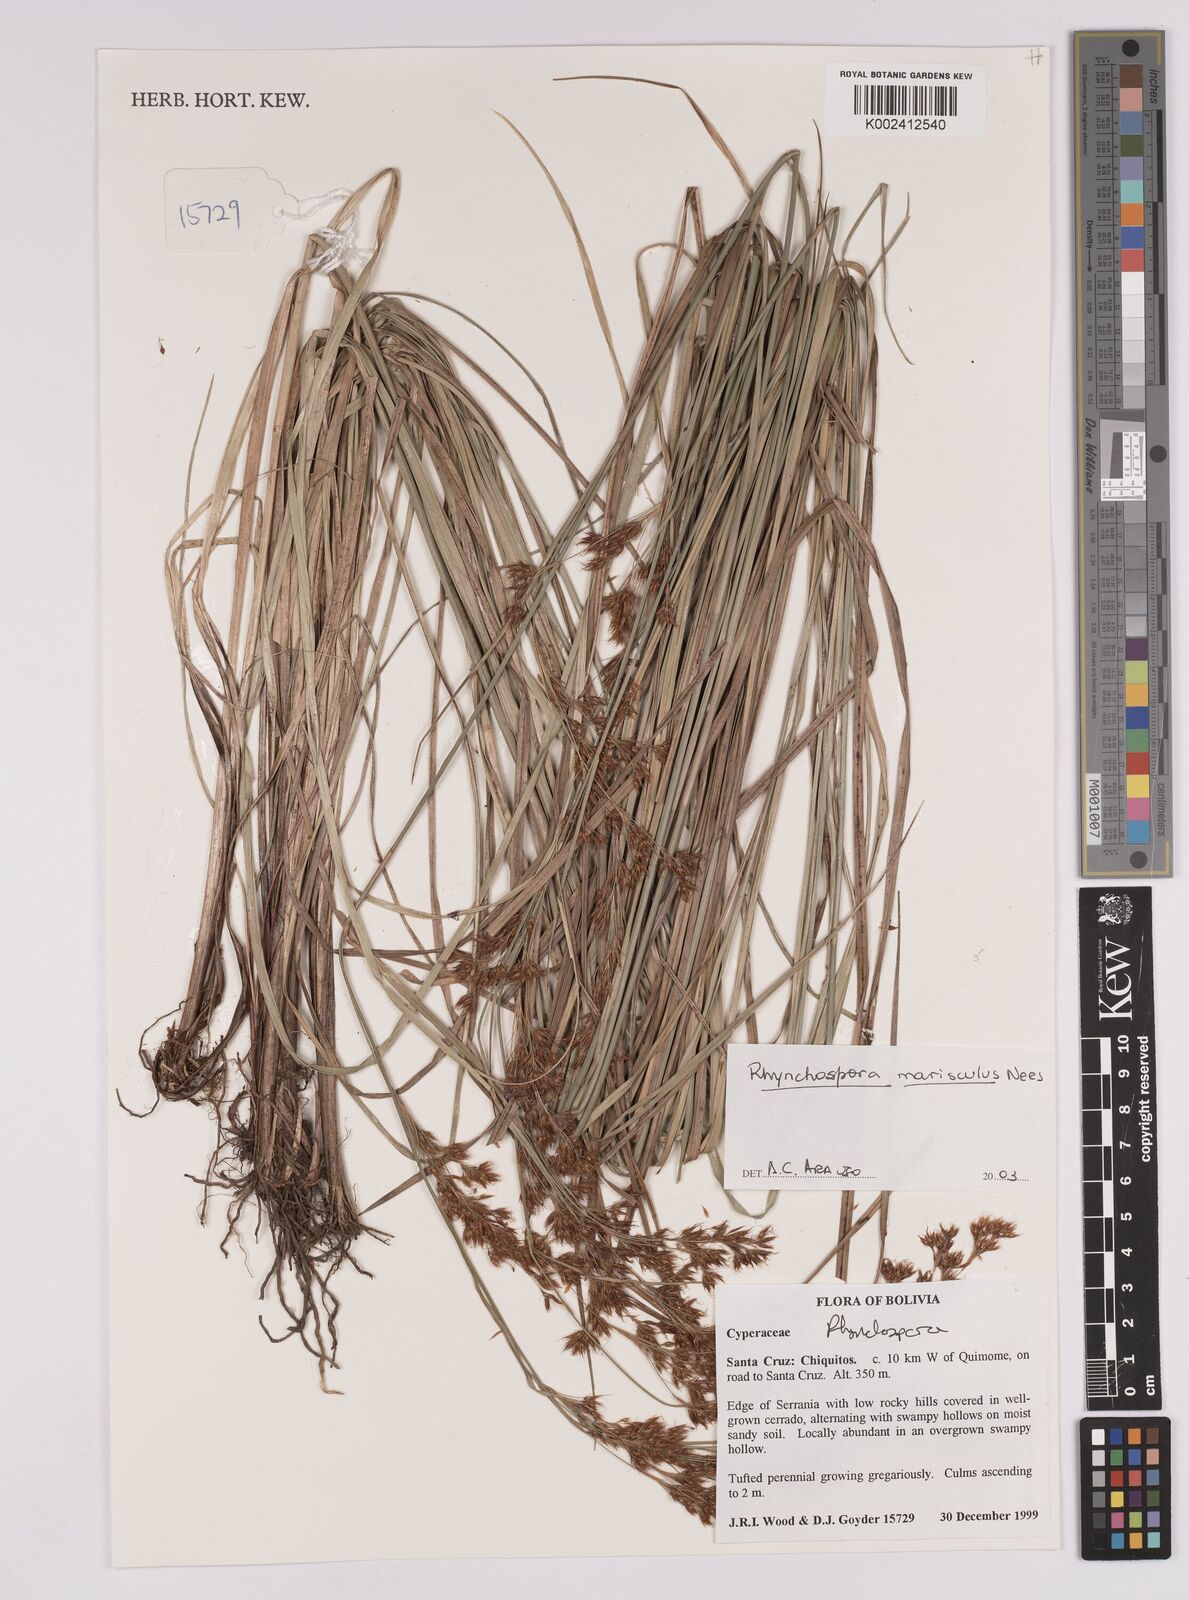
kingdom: Plantae
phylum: Tracheophyta
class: Liliopsida
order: Poales
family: Cyperaceae
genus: Rhynchospora
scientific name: Rhynchospora marisculus
